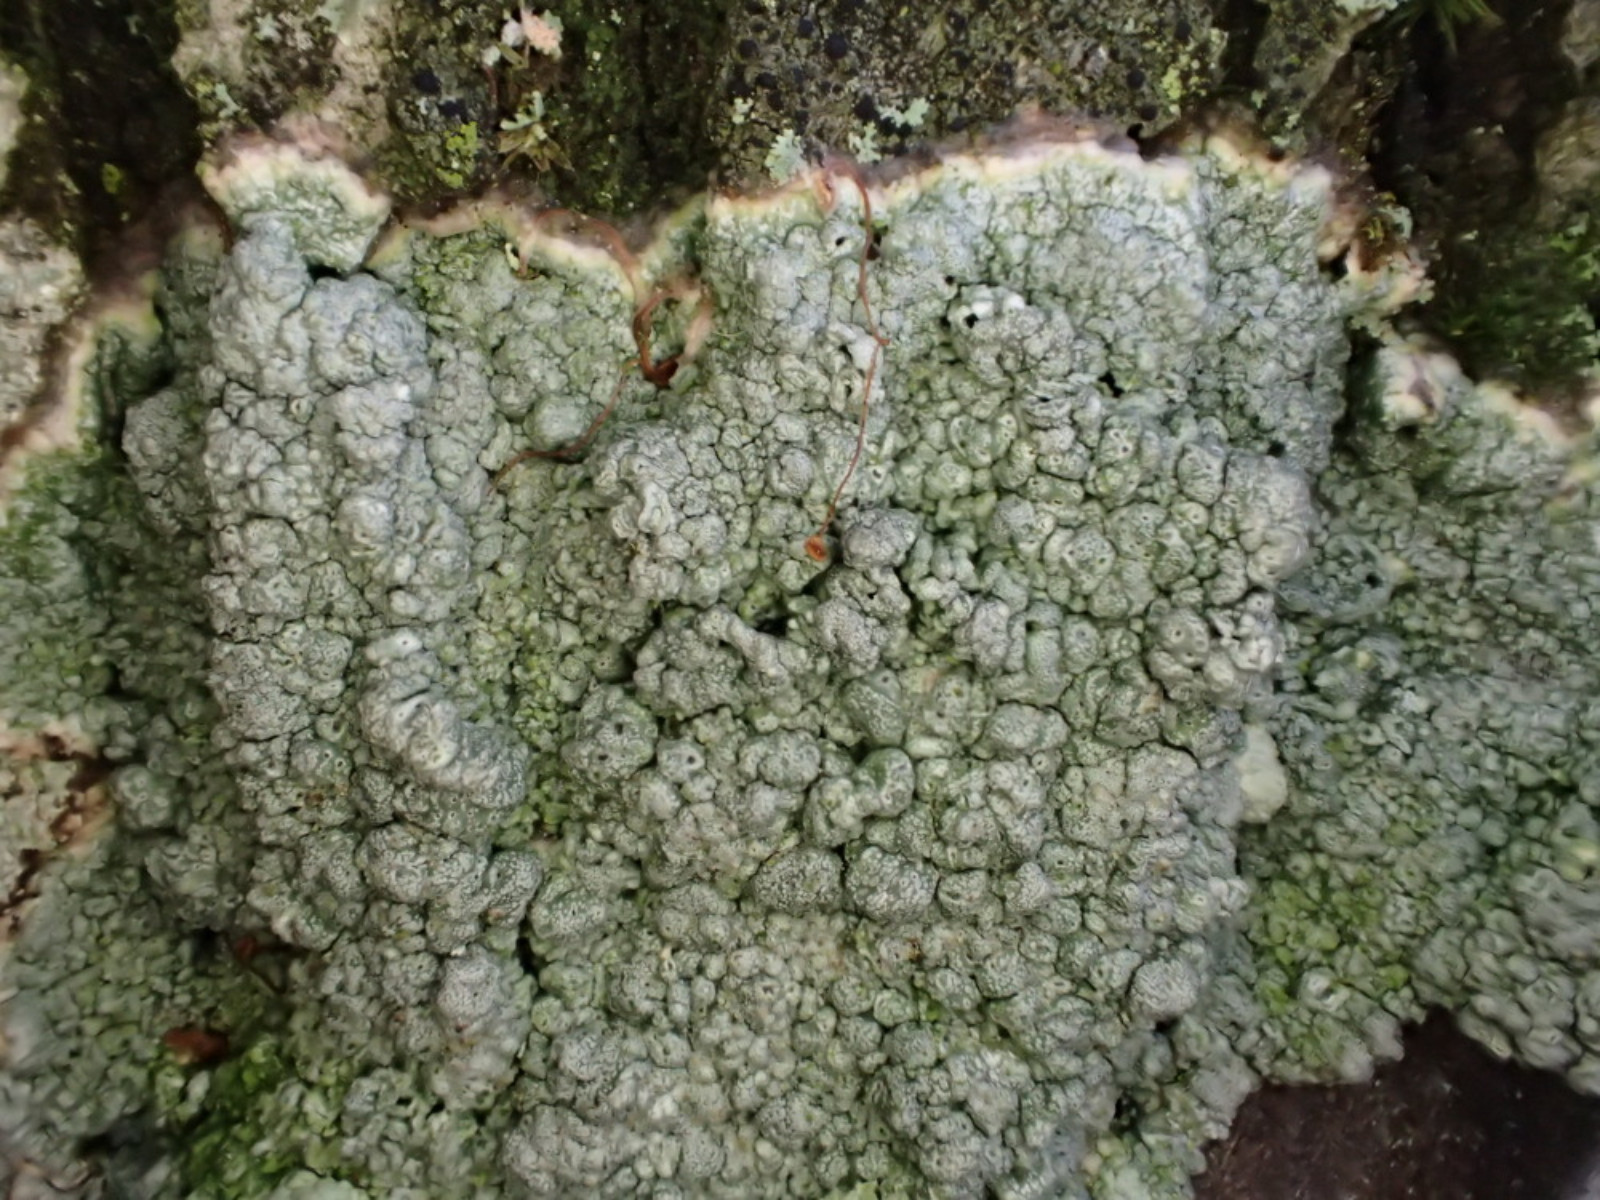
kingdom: Fungi
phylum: Ascomycota
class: Lecanoromycetes
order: Pertusariales
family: Pertusariaceae
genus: Pertusaria
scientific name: Pertusaria pertusa
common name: almindelig prikvortelav
